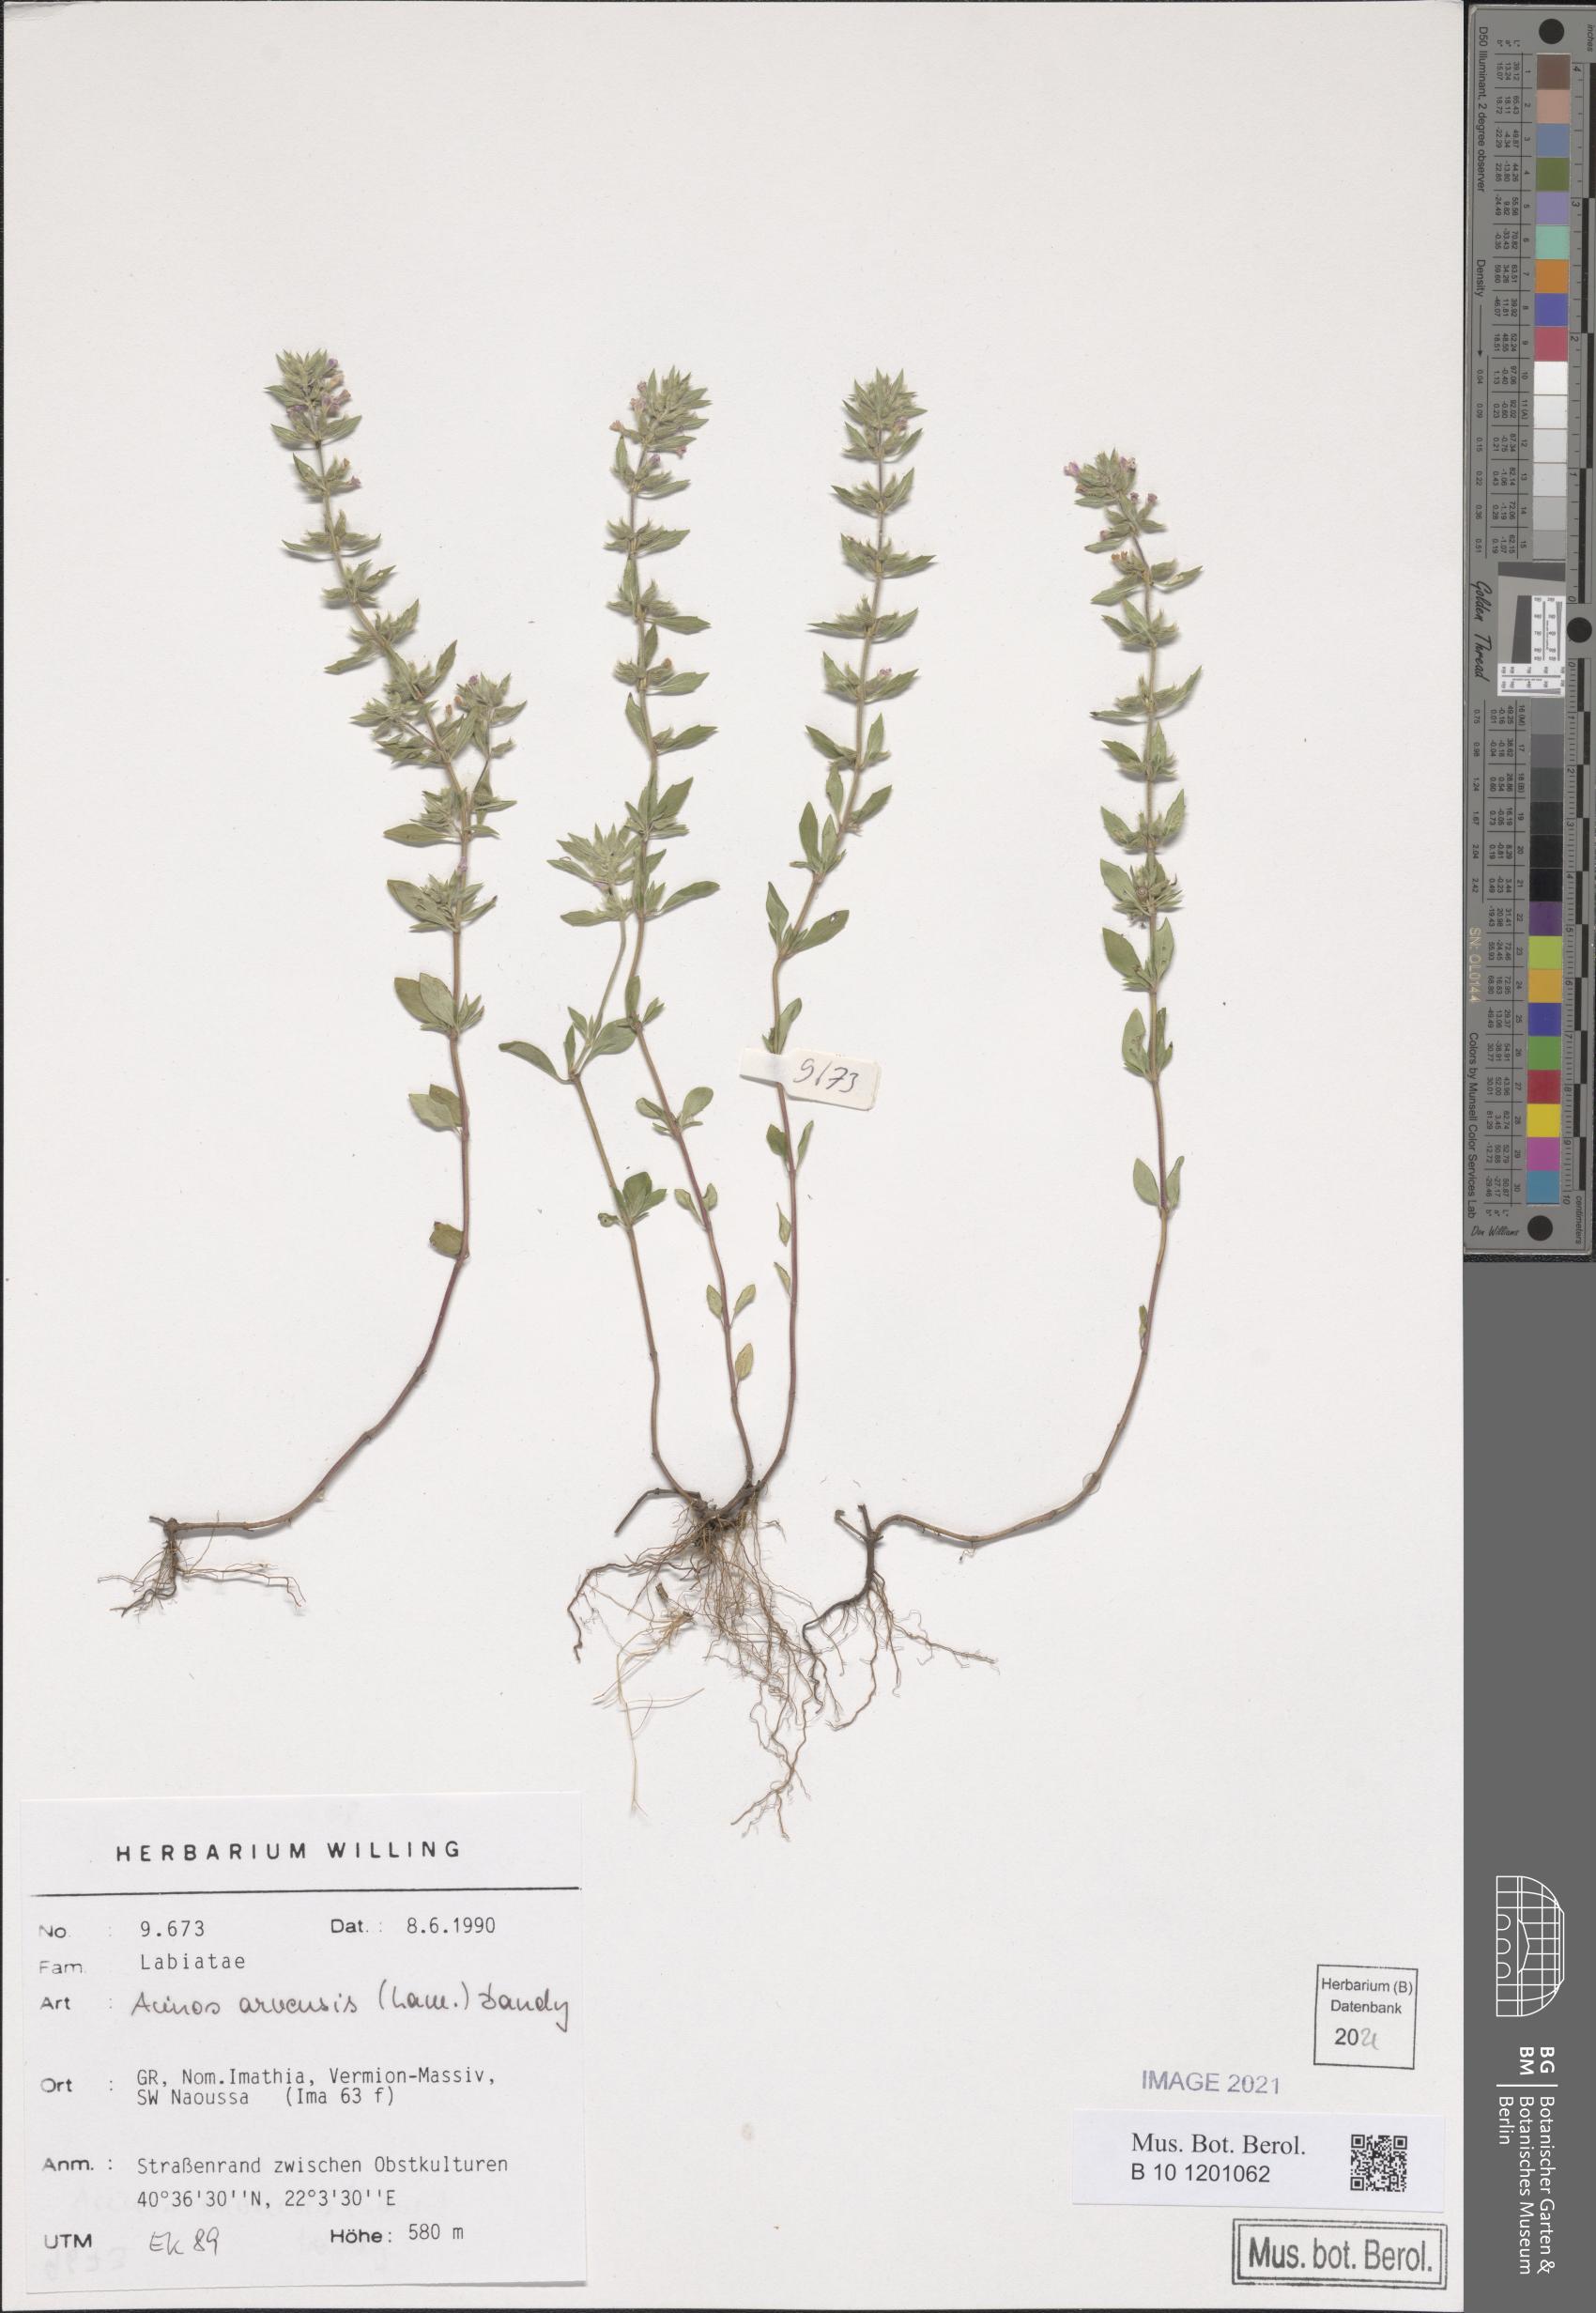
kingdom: Plantae
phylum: Tracheophyta
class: Magnoliopsida
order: Lamiales
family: Lamiaceae
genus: Clinopodium
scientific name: Clinopodium acinos
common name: Basil thyme
